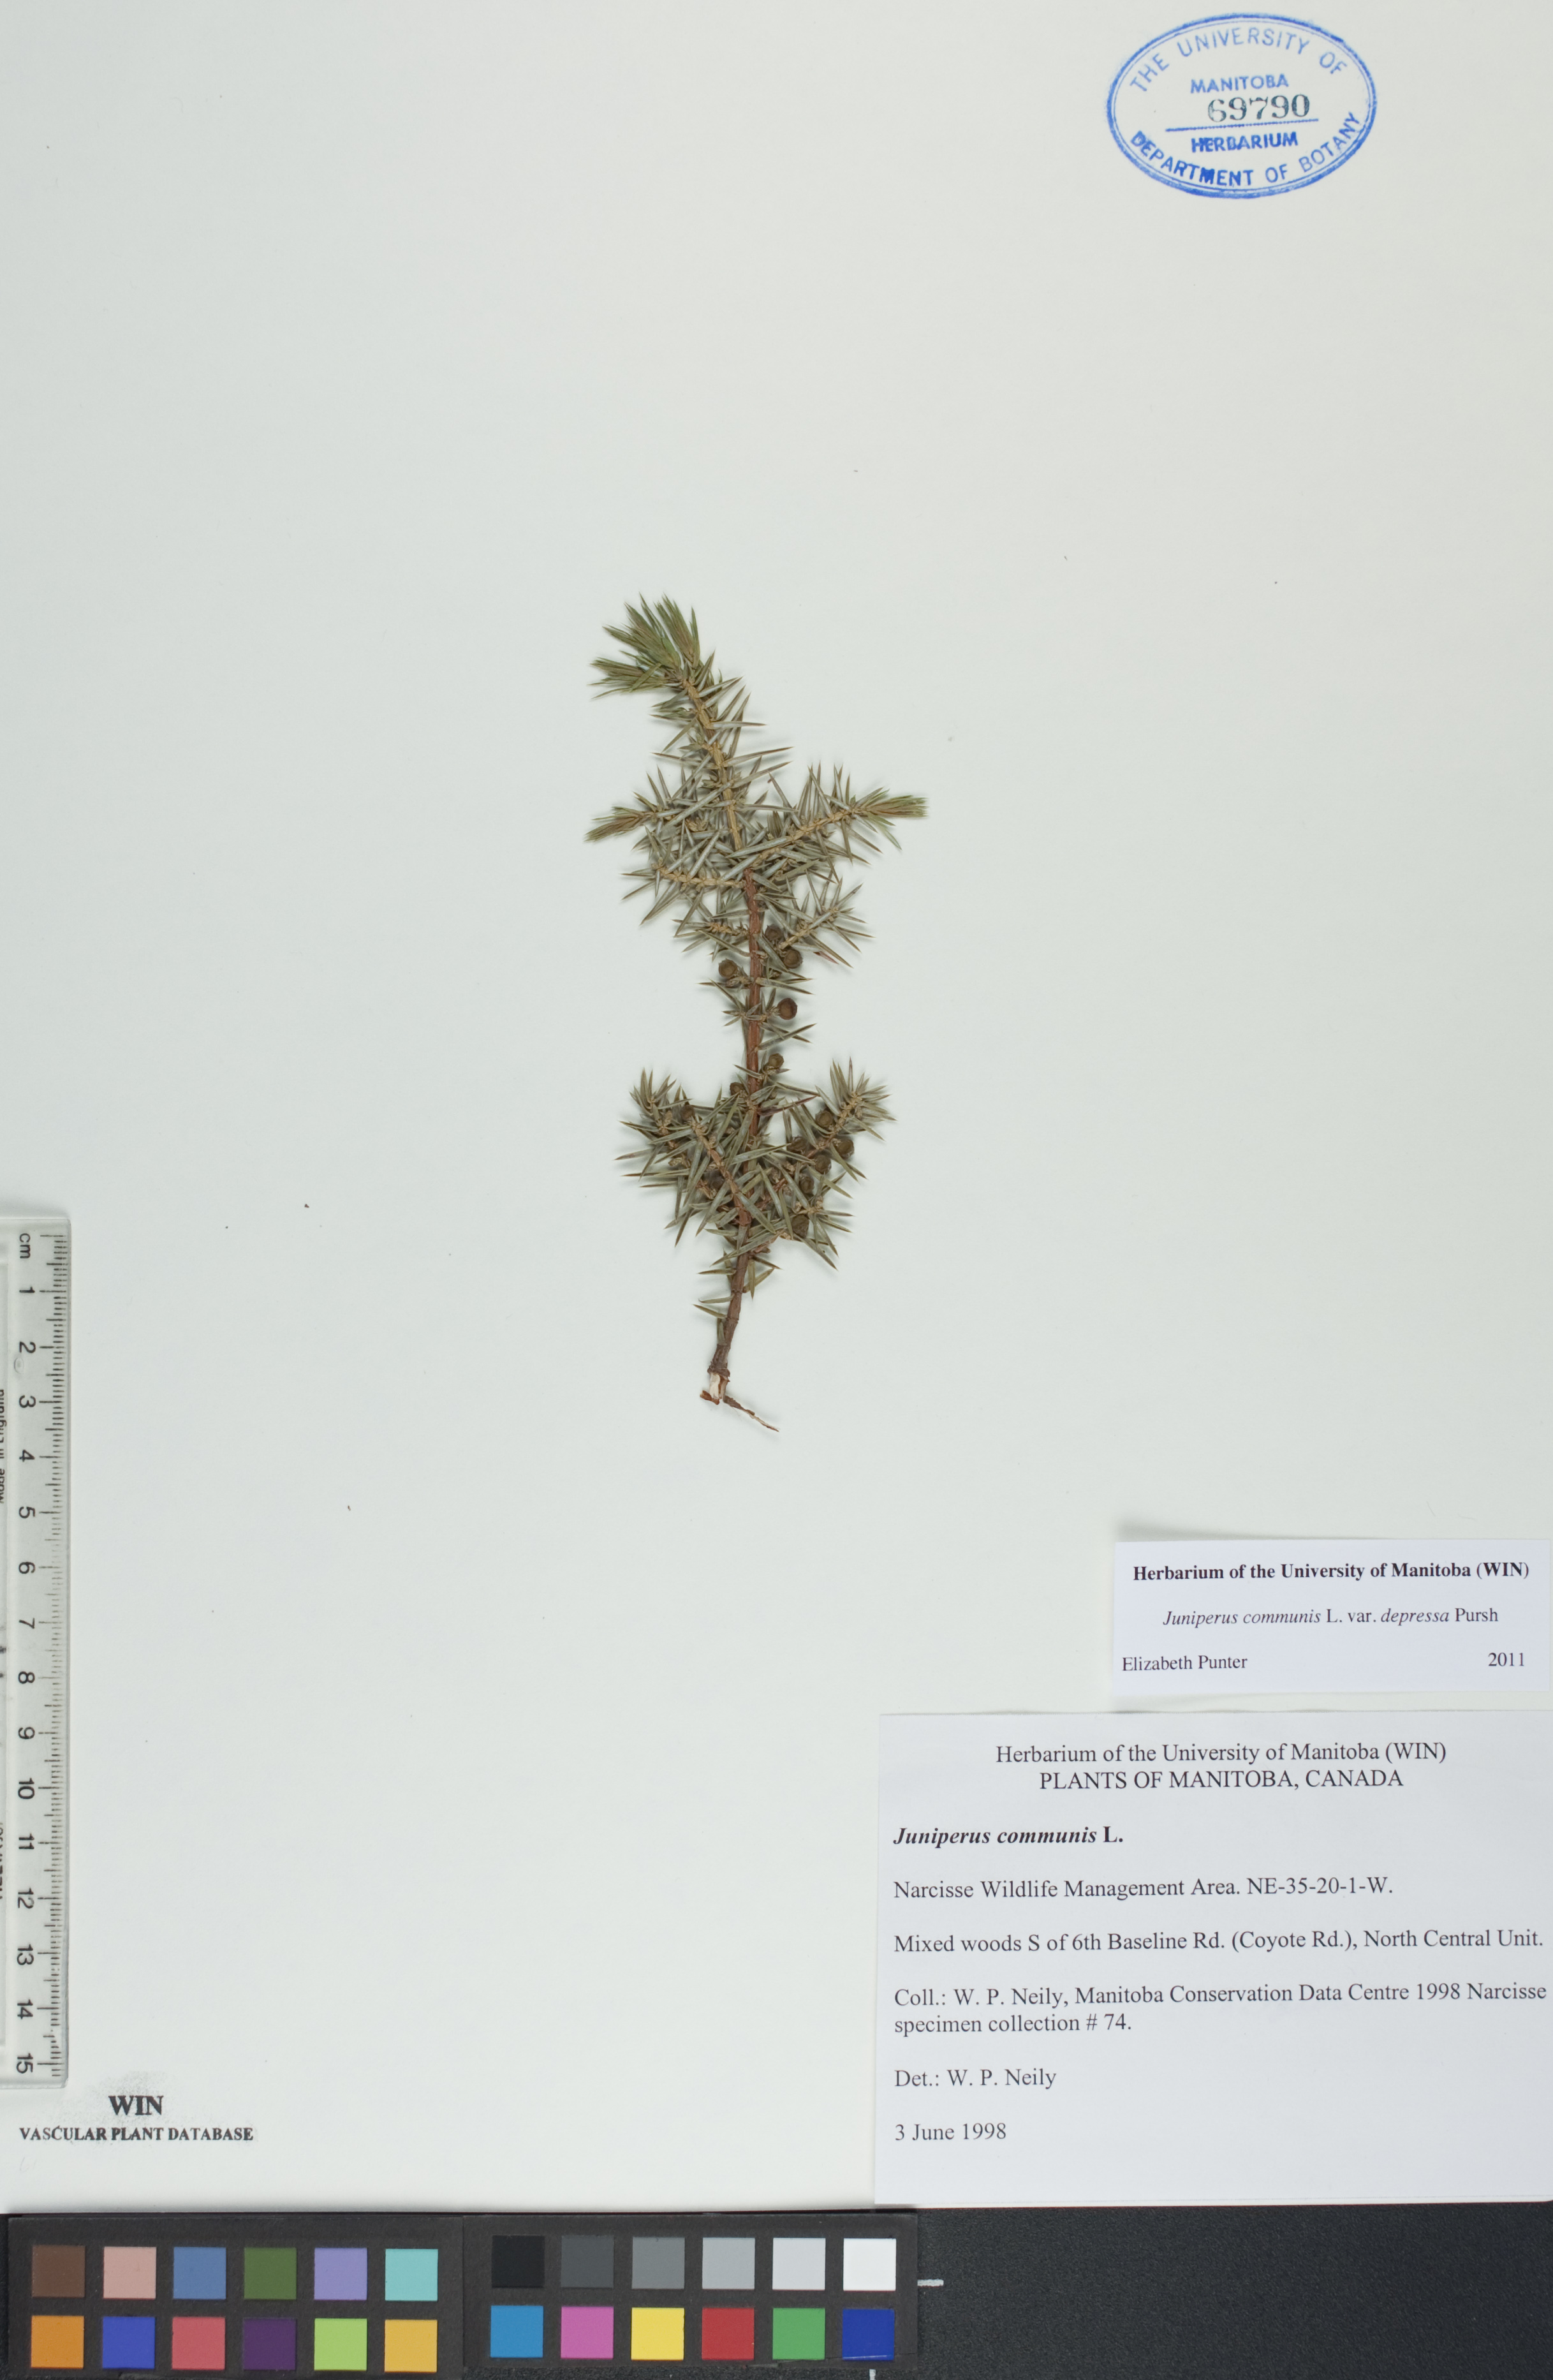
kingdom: Plantae
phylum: Tracheophyta
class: Pinopsida
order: Pinales
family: Cupressaceae
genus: Juniperus
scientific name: Juniperus communis
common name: Common juniper
